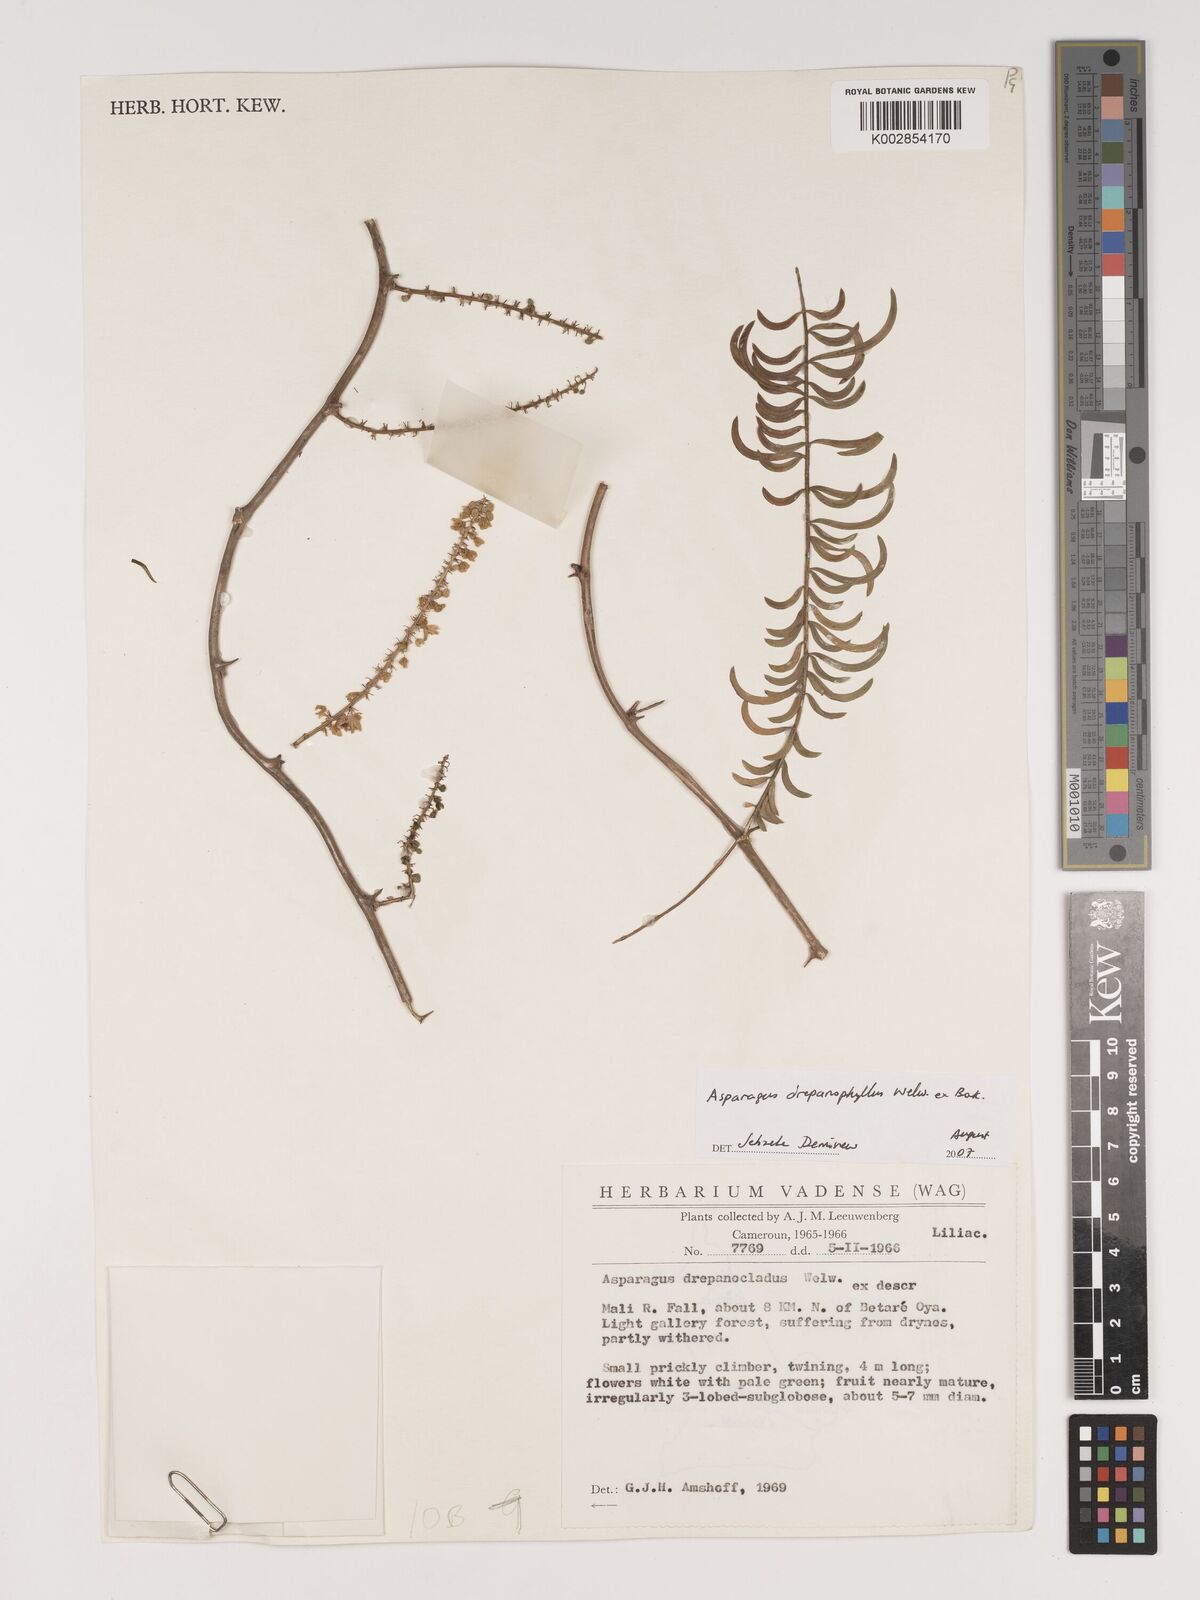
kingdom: Plantae
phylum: Tracheophyta
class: Liliopsida
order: Asparagales
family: Asparagaceae
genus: Asparagus
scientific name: Asparagus drepanophyllus
